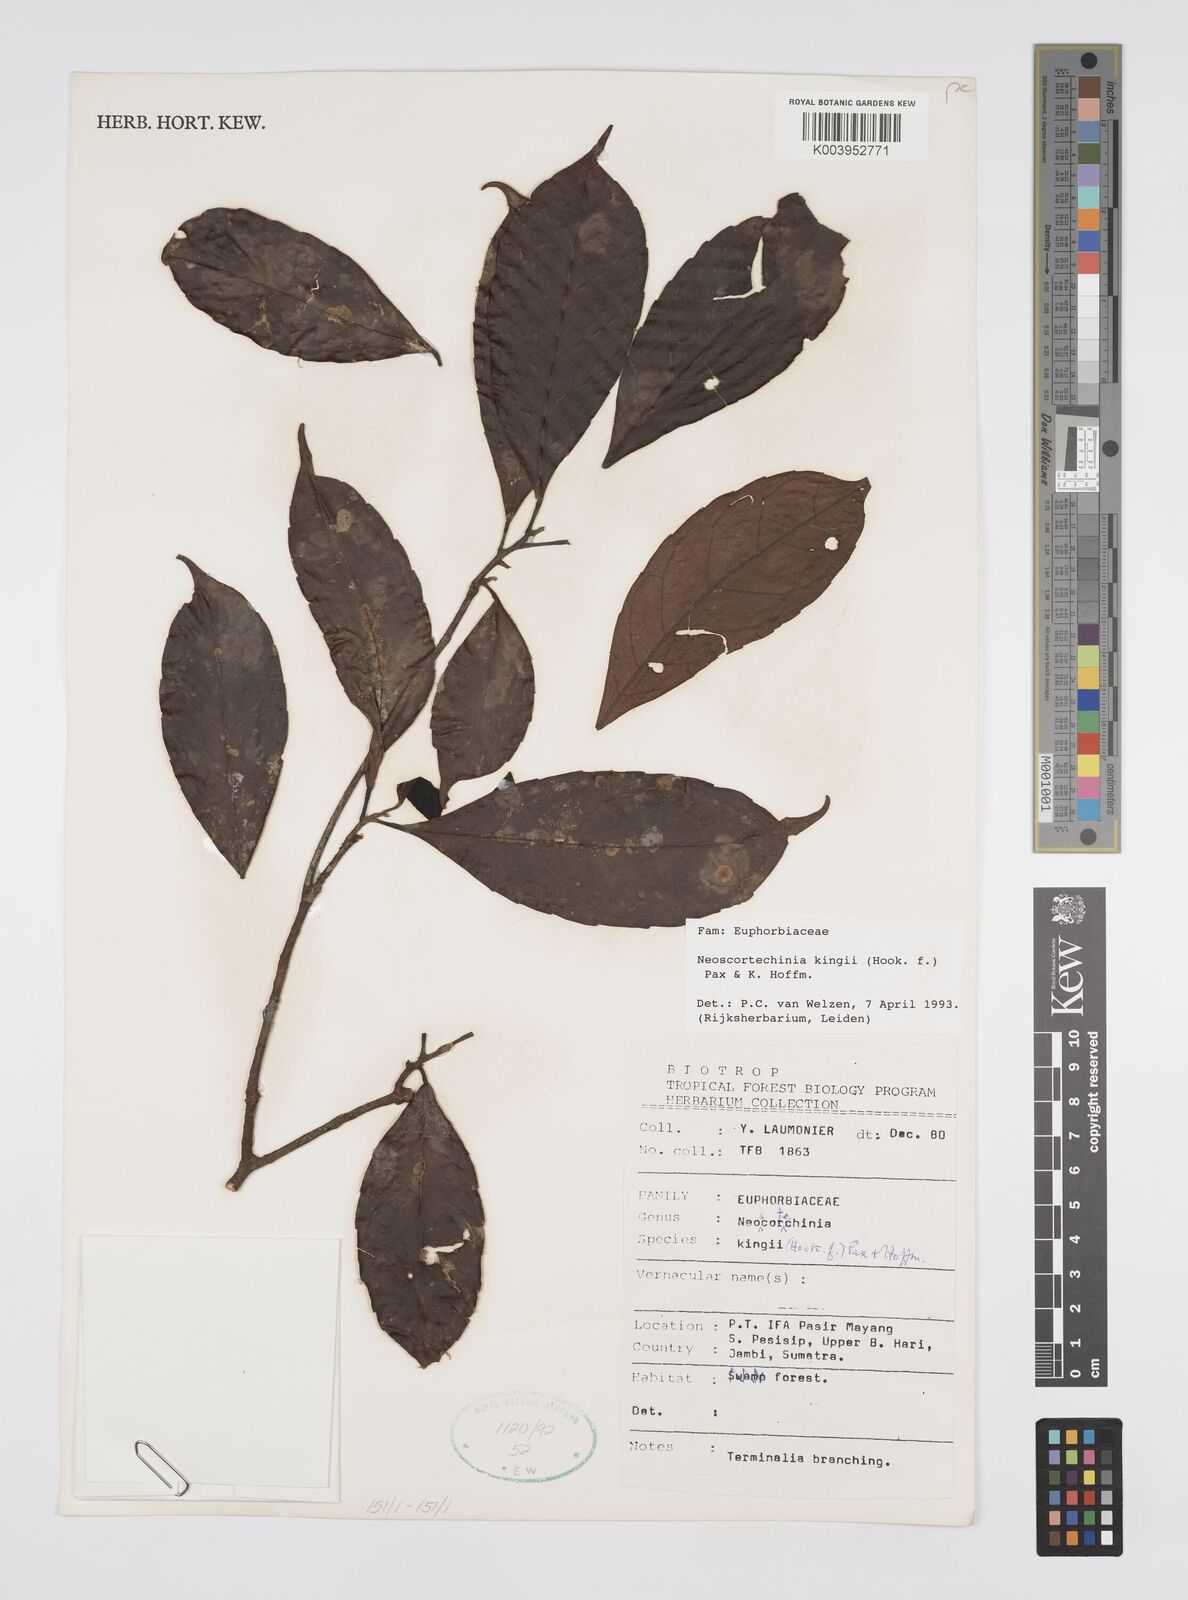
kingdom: Plantae
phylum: Tracheophyta
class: Magnoliopsida
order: Malpighiales
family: Euphorbiaceae
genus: Neoscortechinia
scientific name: Neoscortechinia kingii
